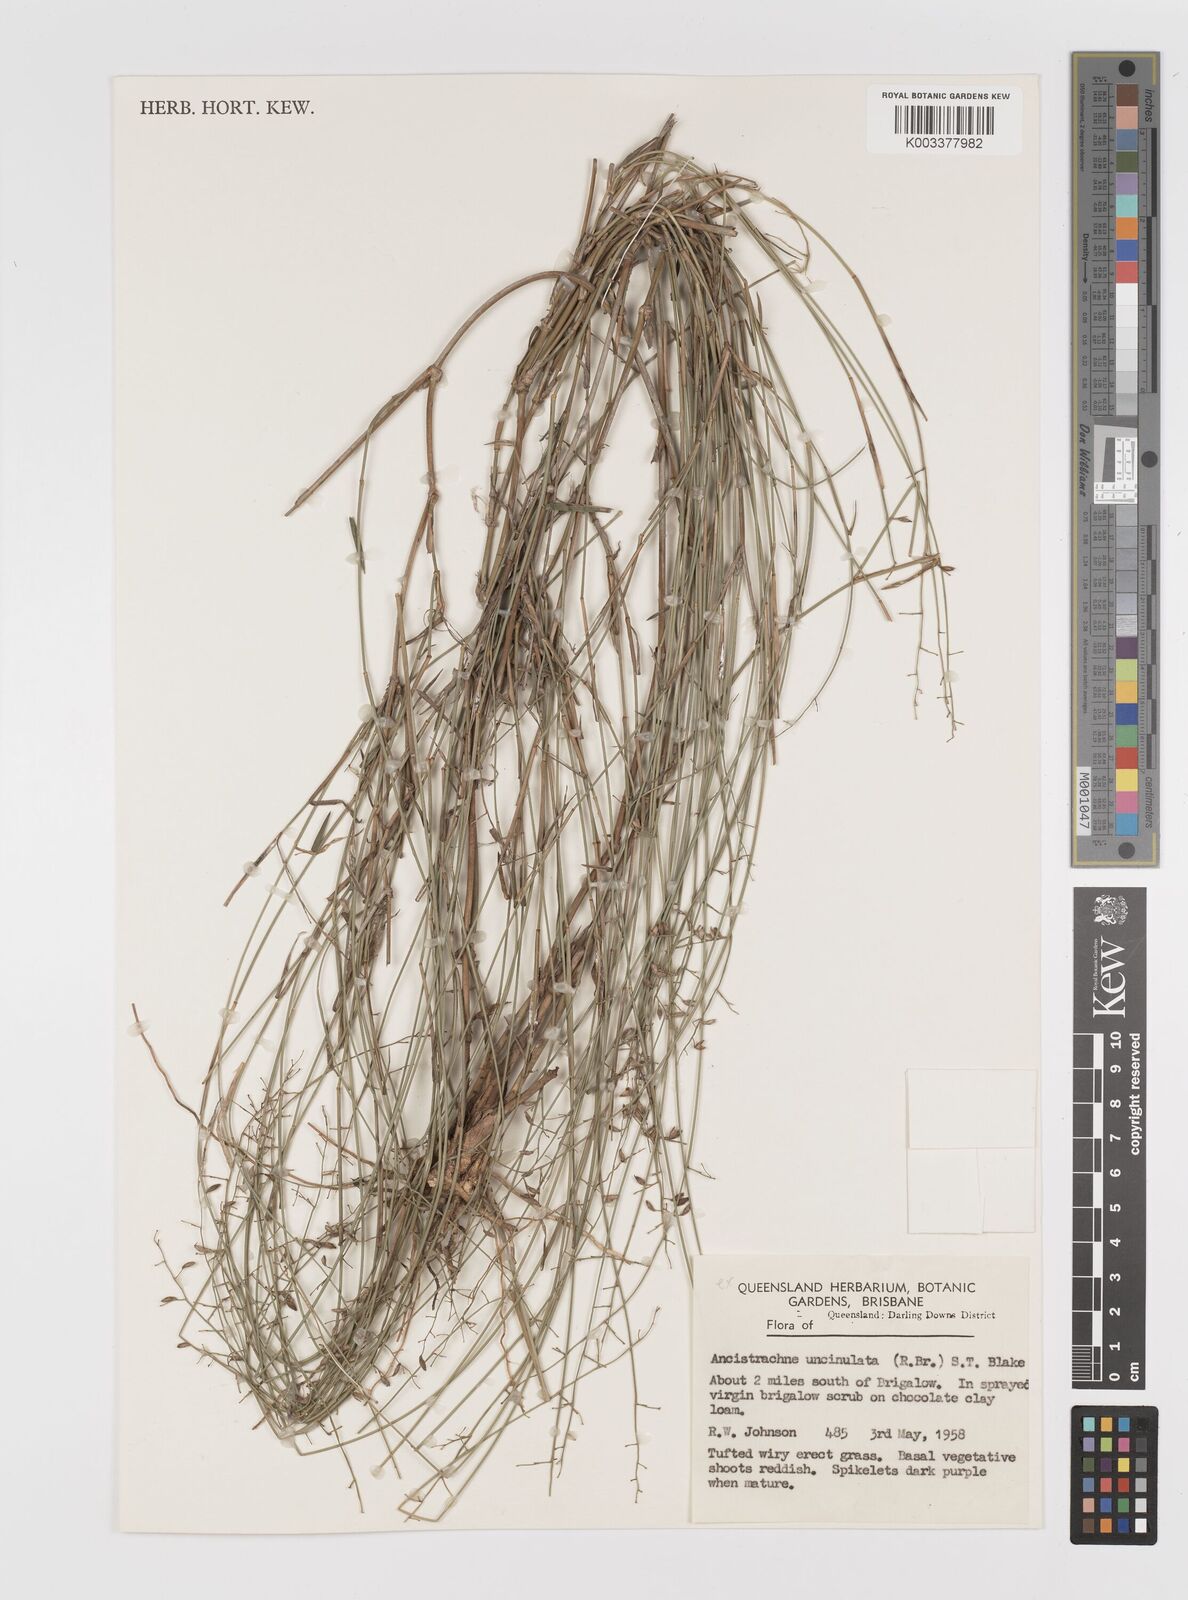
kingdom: Plantae
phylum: Tracheophyta
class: Liliopsida
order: Poales
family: Poaceae
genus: Ancistrachne
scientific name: Ancistrachne uncinulata
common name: Hooky grass
